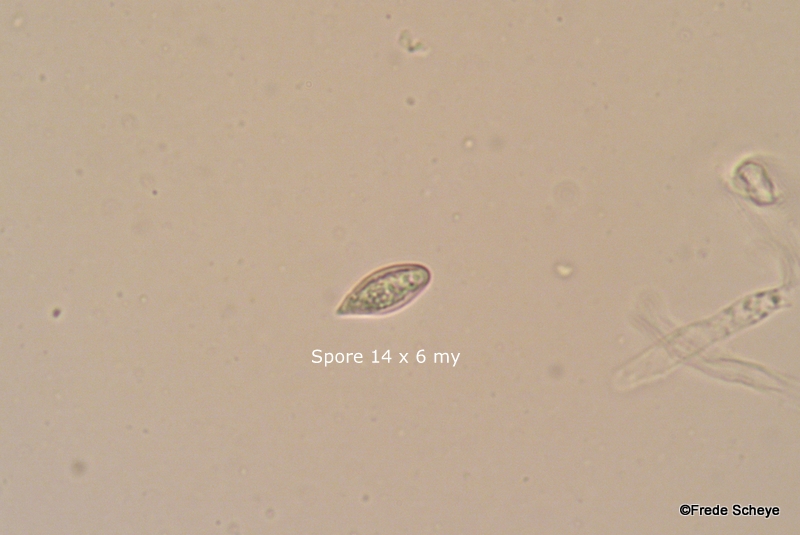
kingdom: Fungi
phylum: Basidiomycota
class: Agaricomycetes
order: Agaricales
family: Entolomataceae
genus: Clitopilus
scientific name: Clitopilus prunulus
